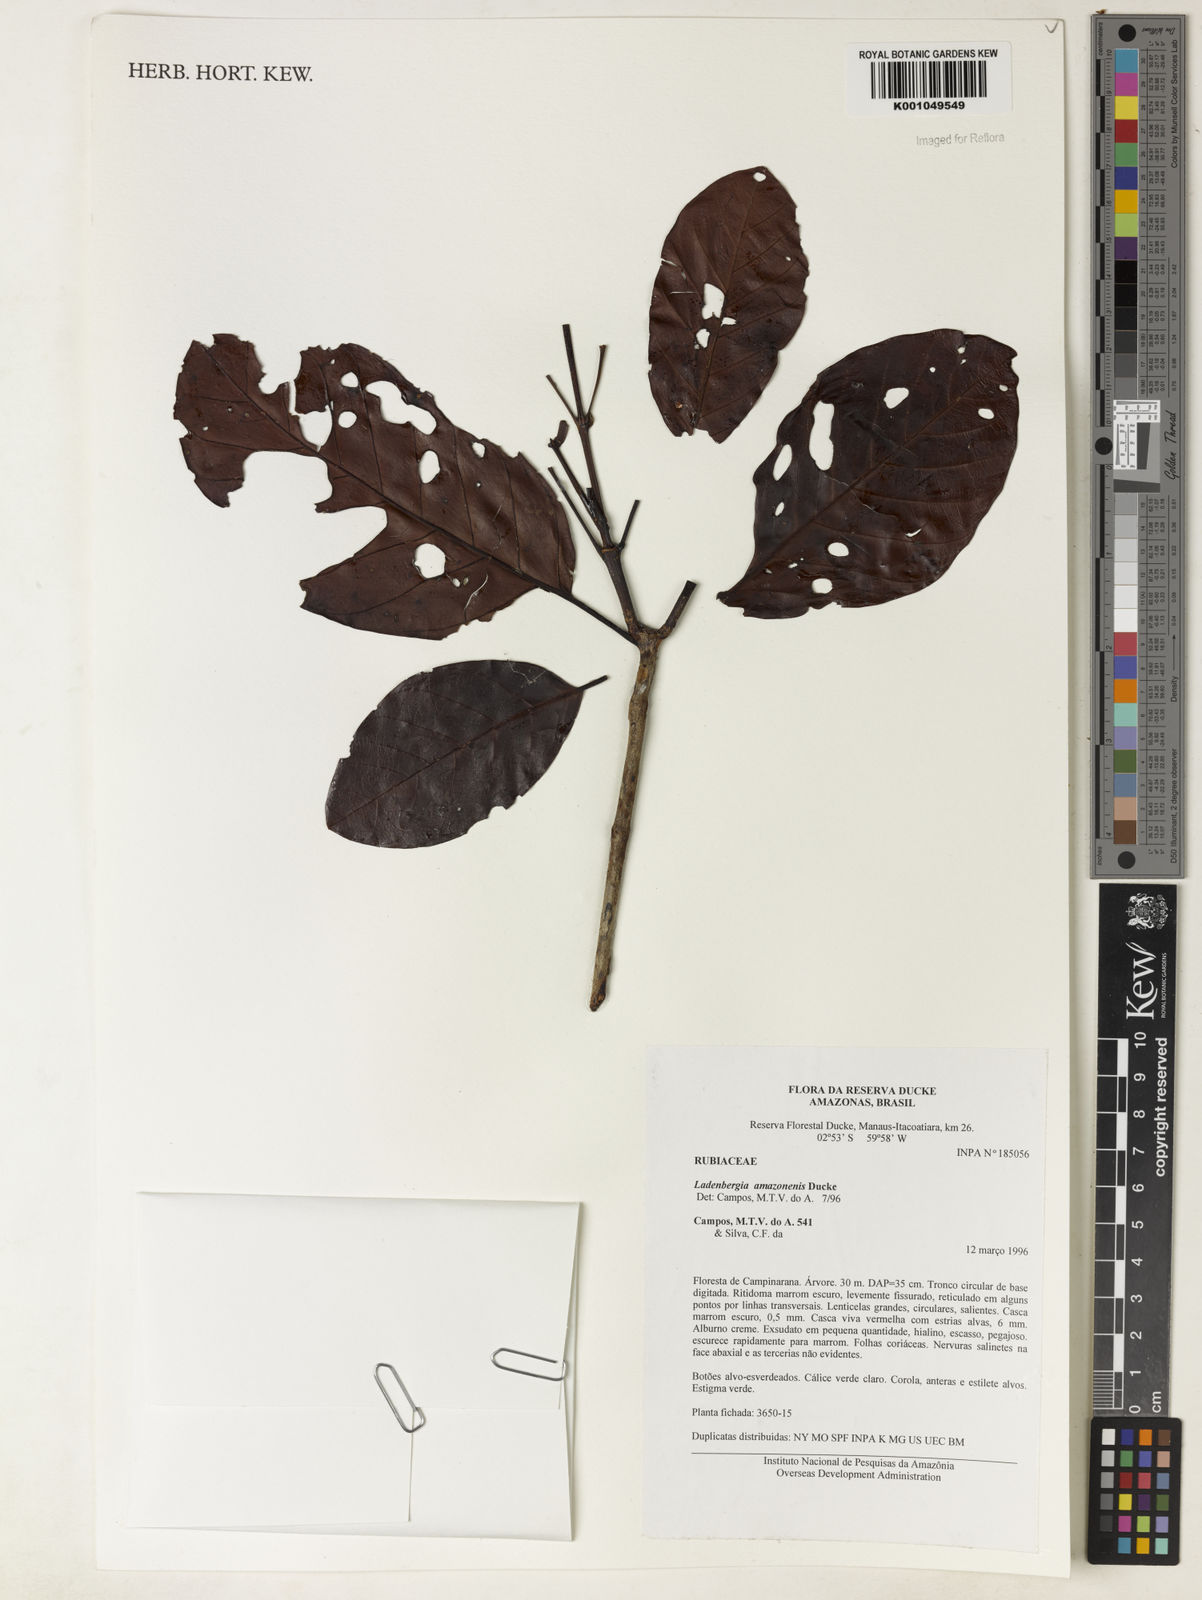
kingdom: Plantae
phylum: Tracheophyta
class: Magnoliopsida
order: Gentianales
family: Rubiaceae
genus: Ladenbergia
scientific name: Ladenbergia amazonensis
